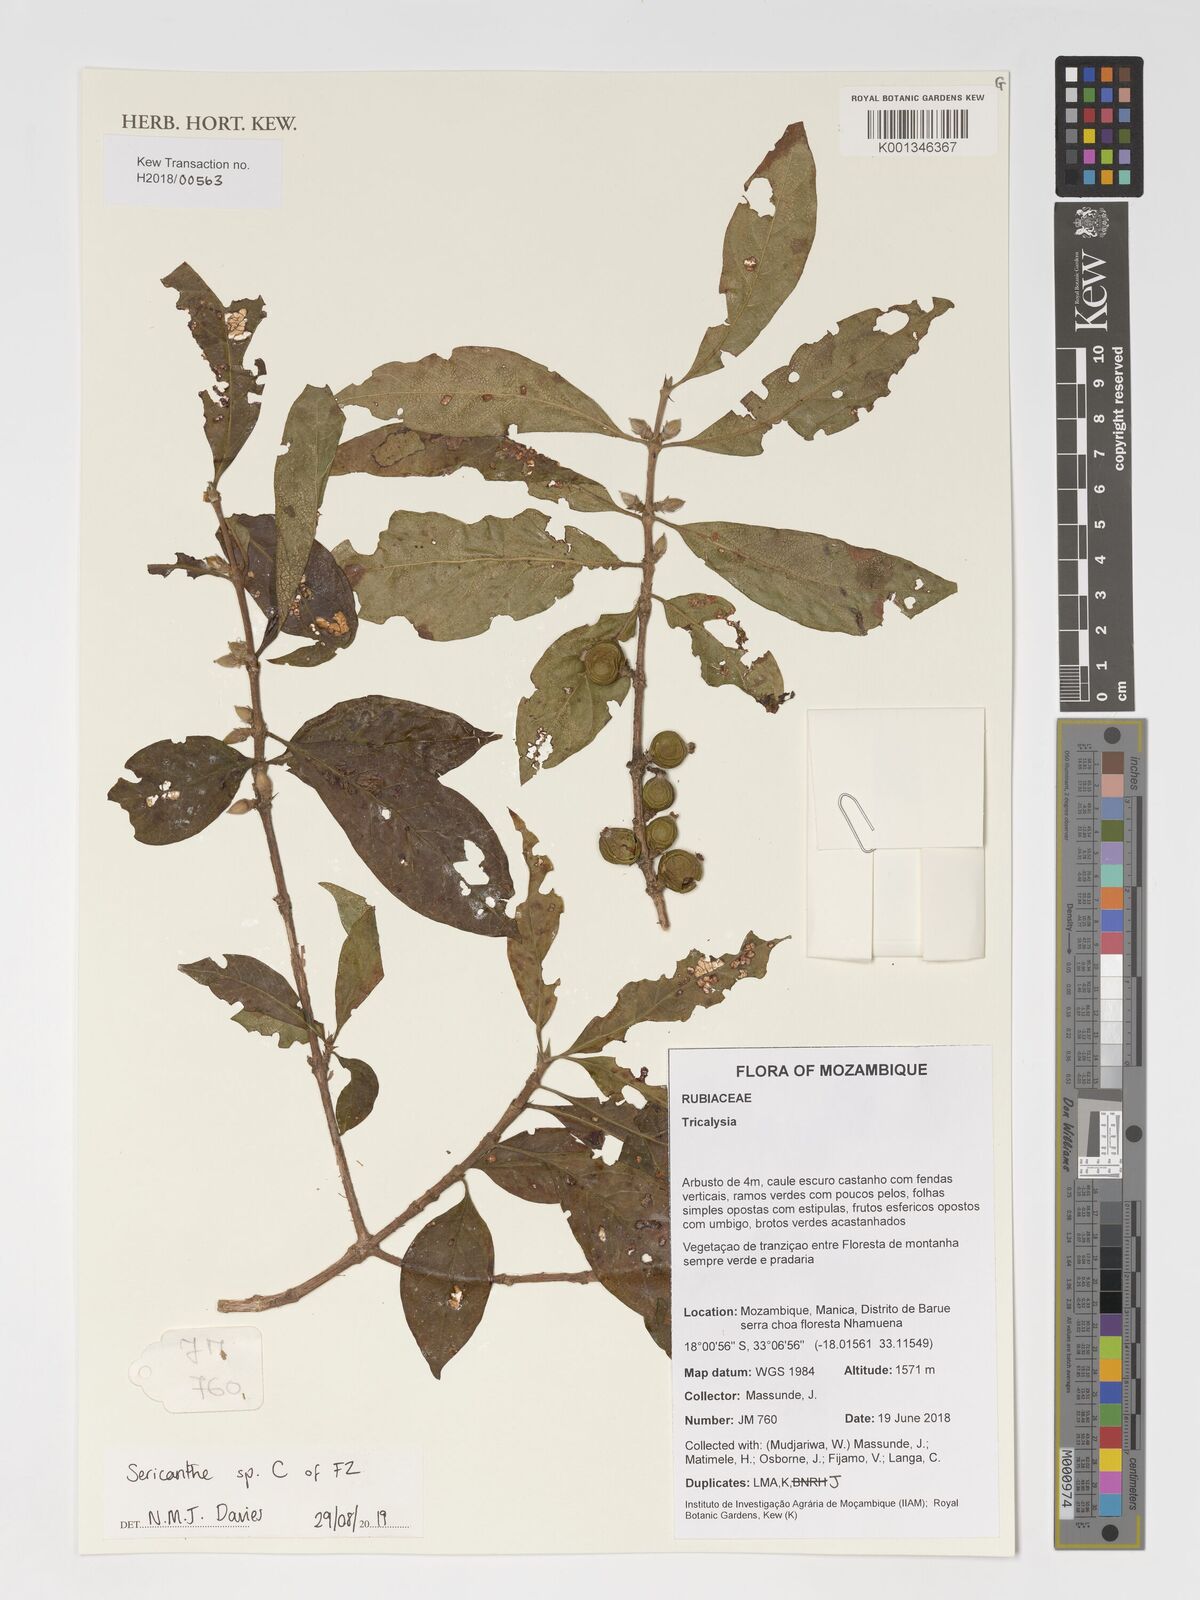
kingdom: Plantae
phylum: Tracheophyta
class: Magnoliopsida
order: Gentianales
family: Rubiaceae
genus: Sericanthe
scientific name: Sericanthe
